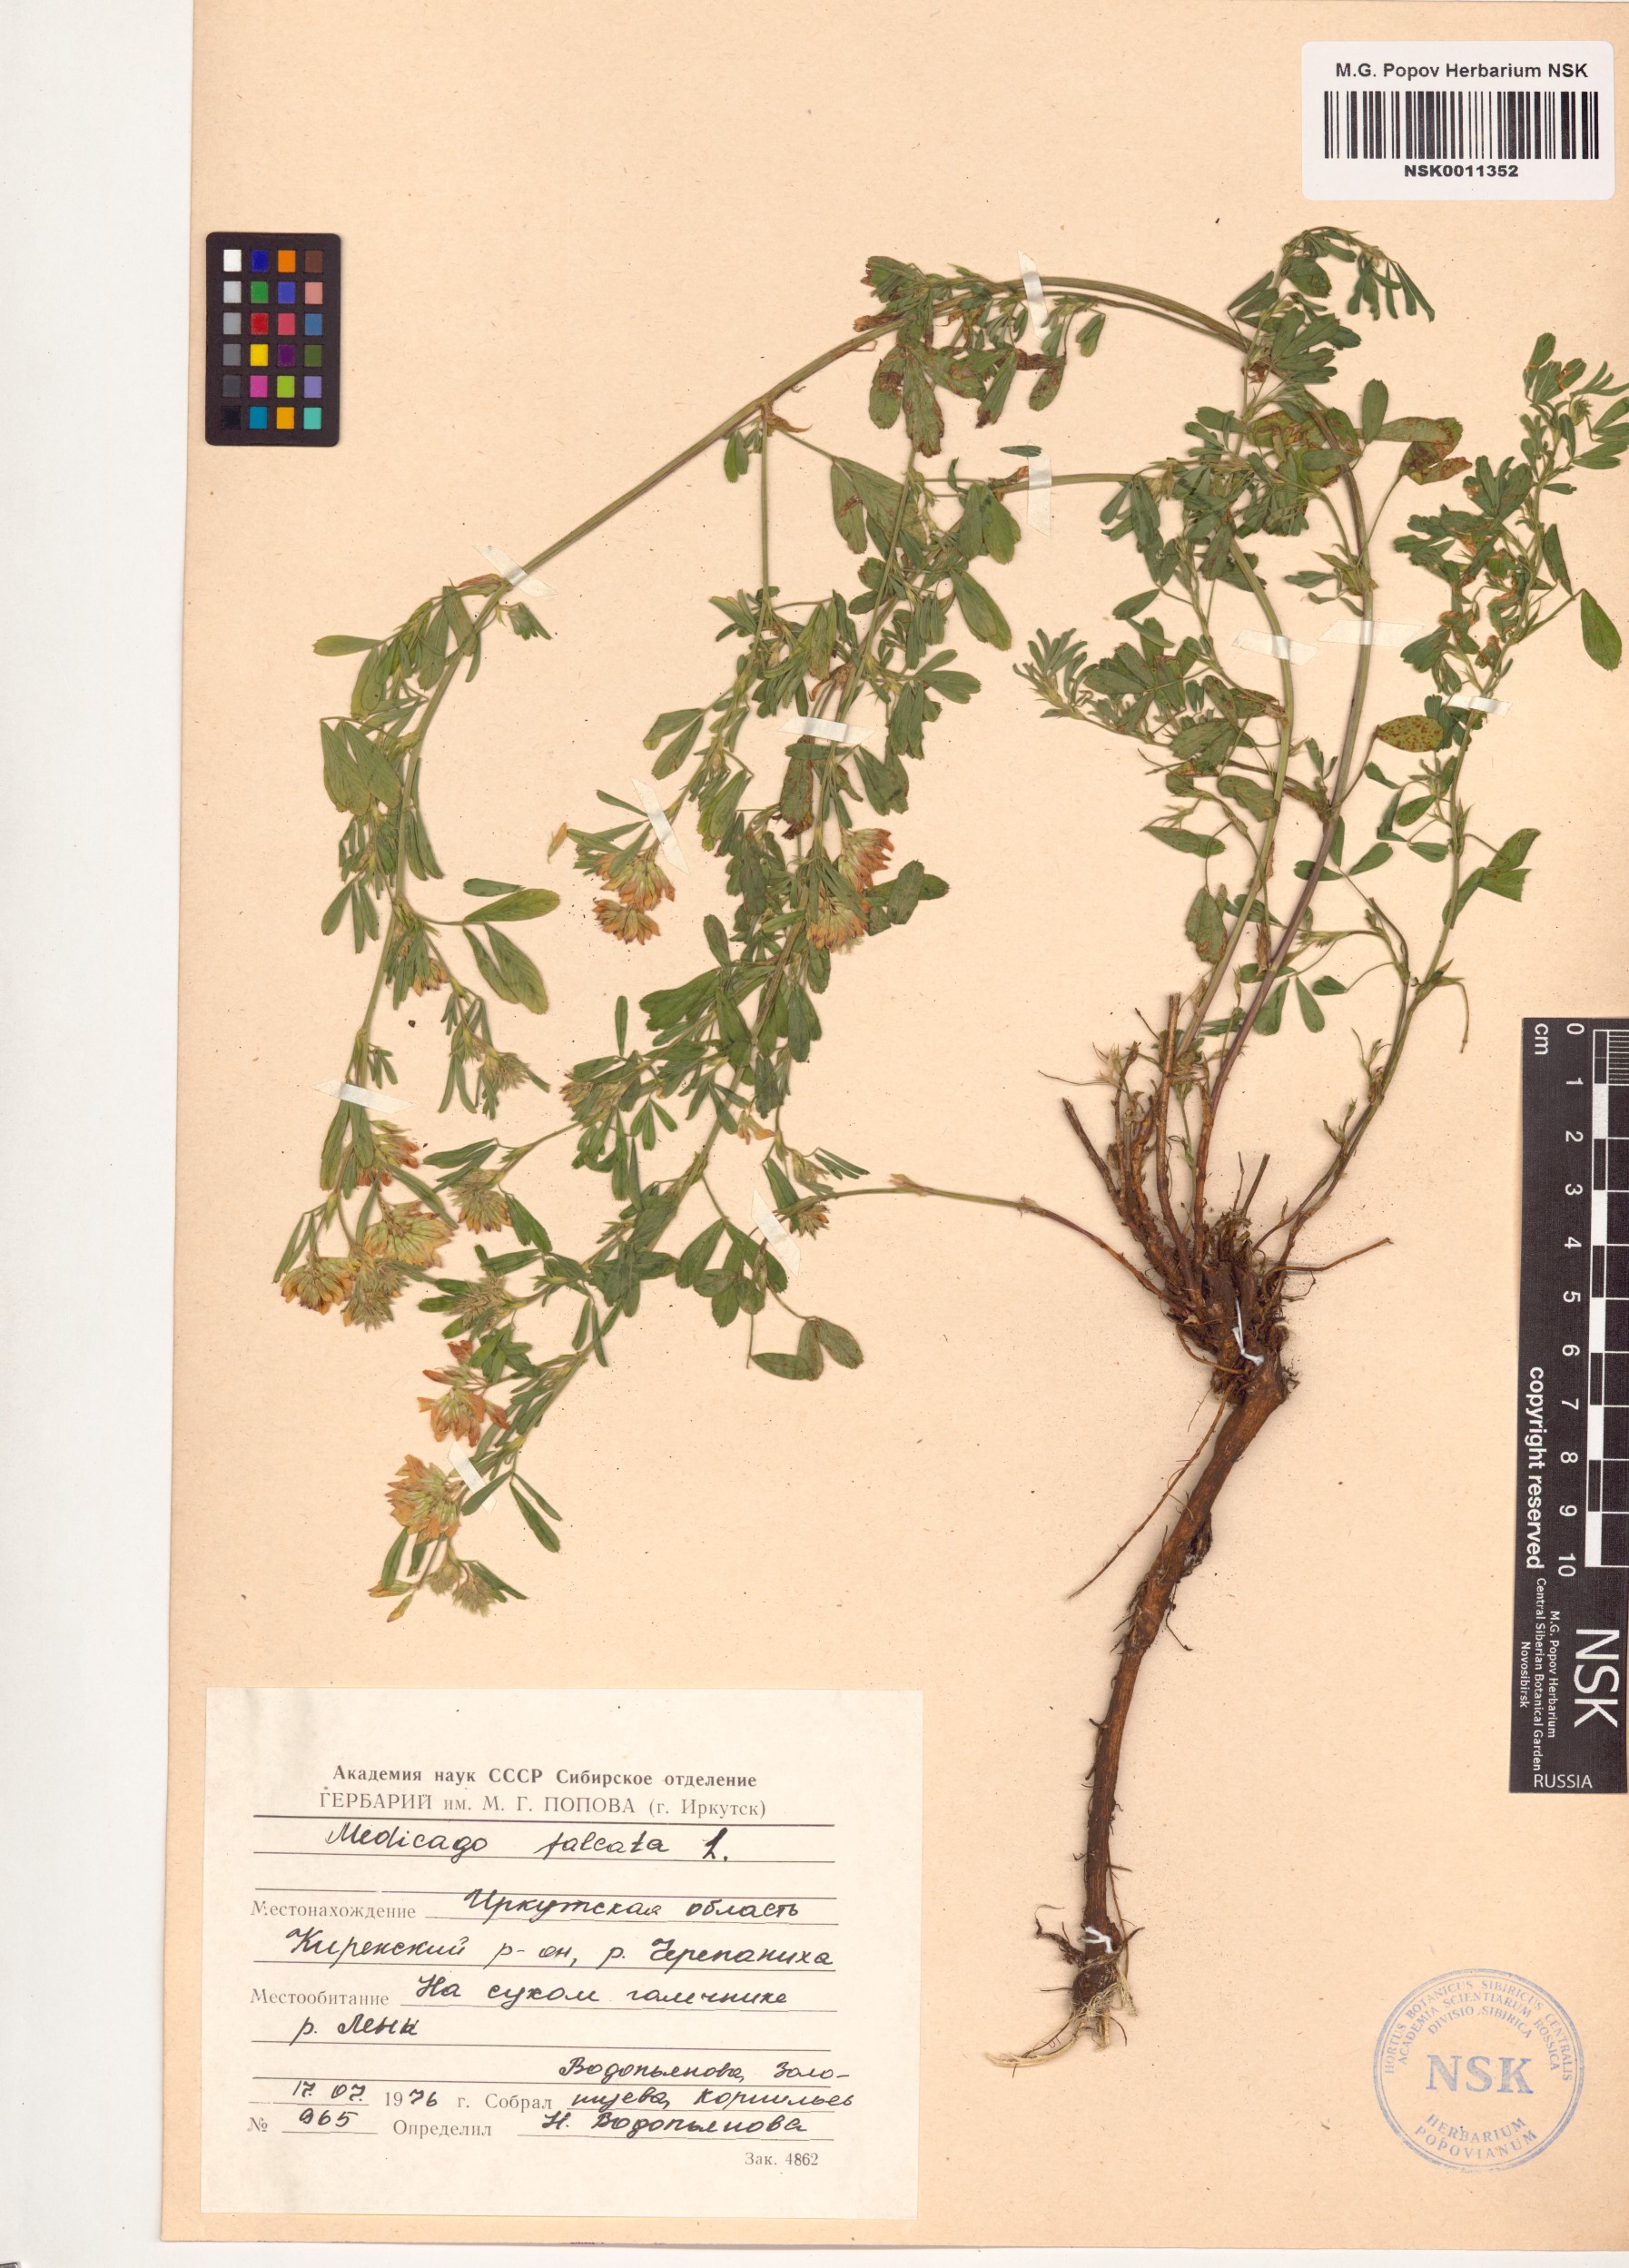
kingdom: Plantae
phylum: Tracheophyta
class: Magnoliopsida
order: Fabales
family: Fabaceae
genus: Medicago
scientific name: Medicago falcata
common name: Sickle medick
